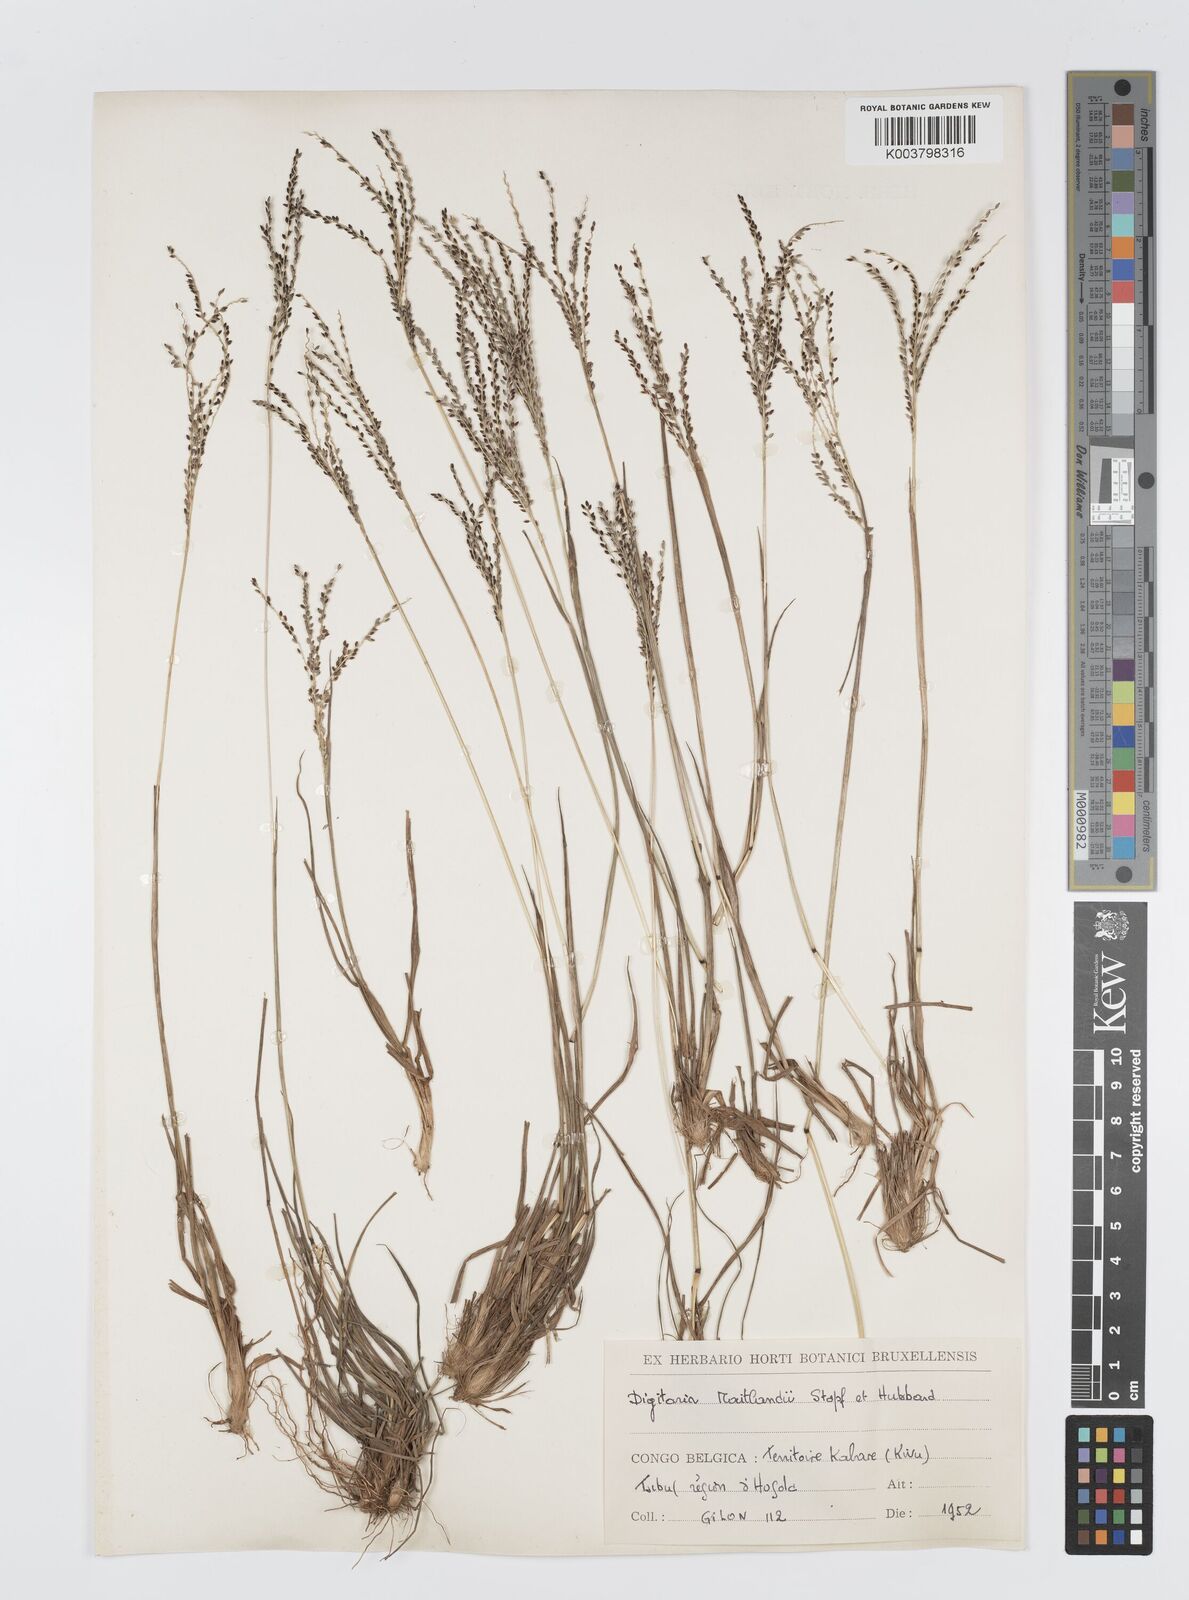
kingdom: Plantae
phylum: Tracheophyta
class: Liliopsida
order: Poales
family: Poaceae
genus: Digitaria
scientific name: Digitaria maitlandii
